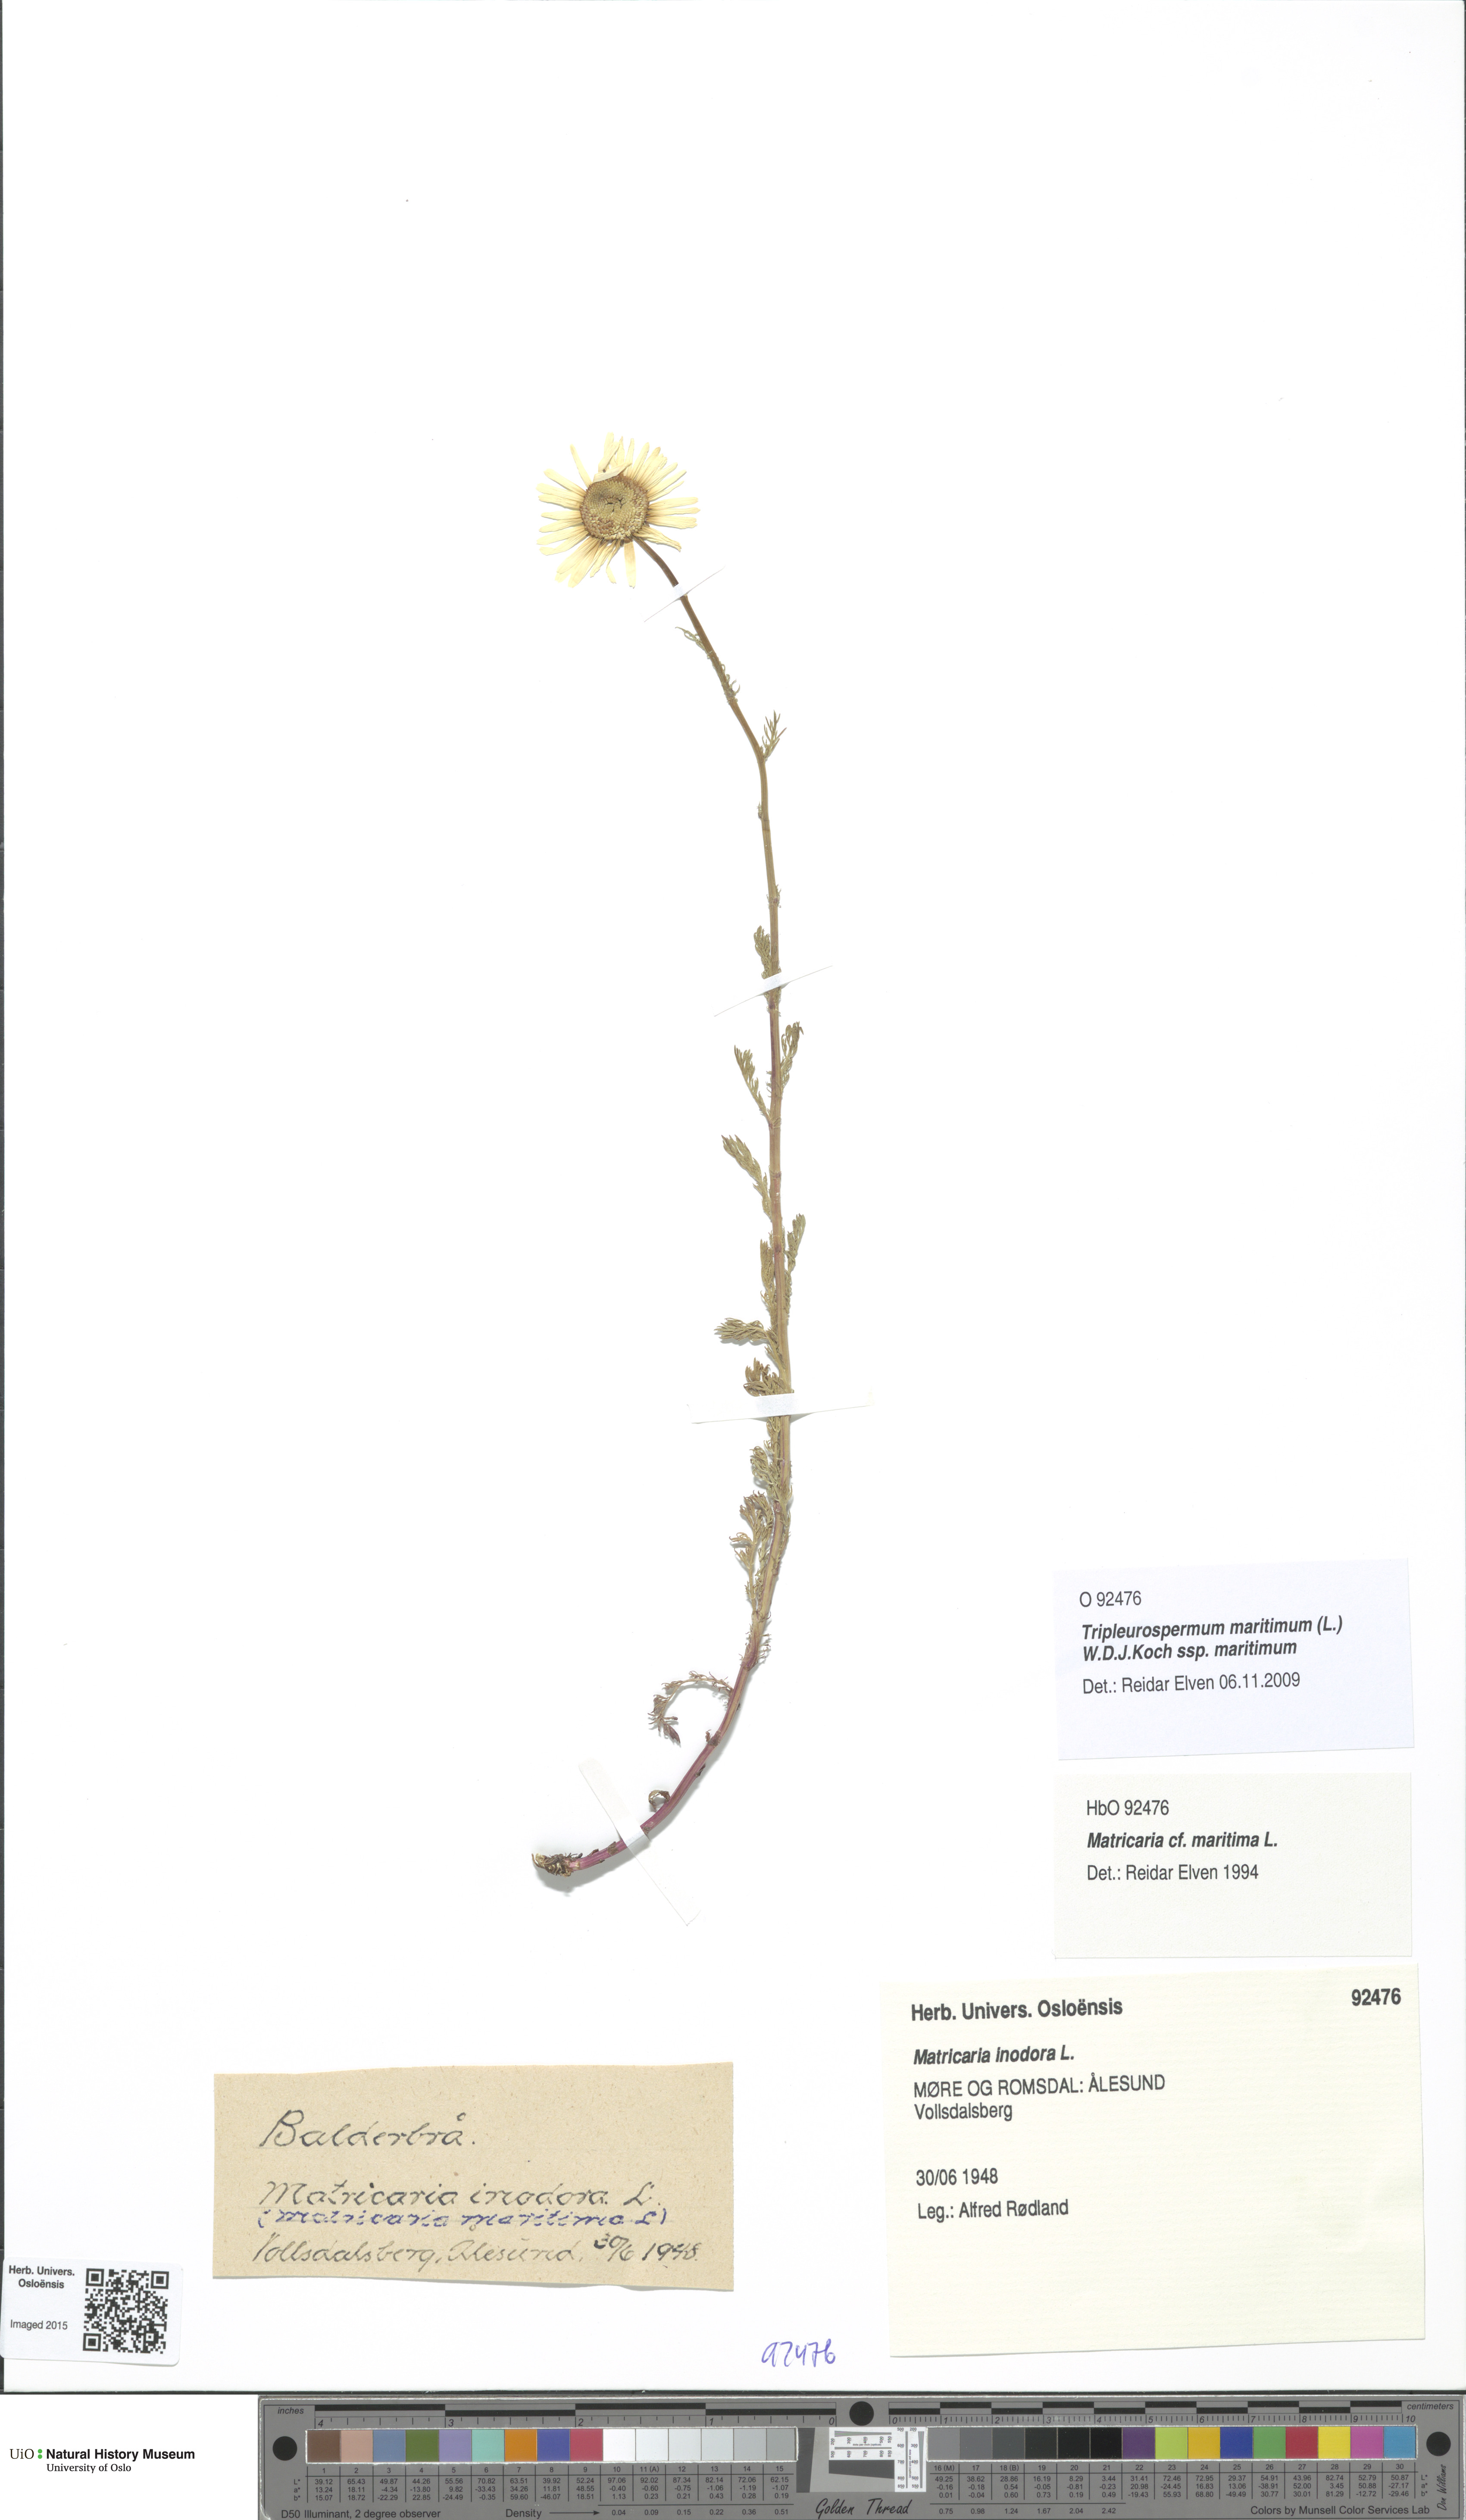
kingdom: Plantae
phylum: Tracheophyta
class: Magnoliopsida
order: Asterales
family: Asteraceae
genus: Tripleurospermum
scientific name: Tripleurospermum maritimum
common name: Sea mayweed
